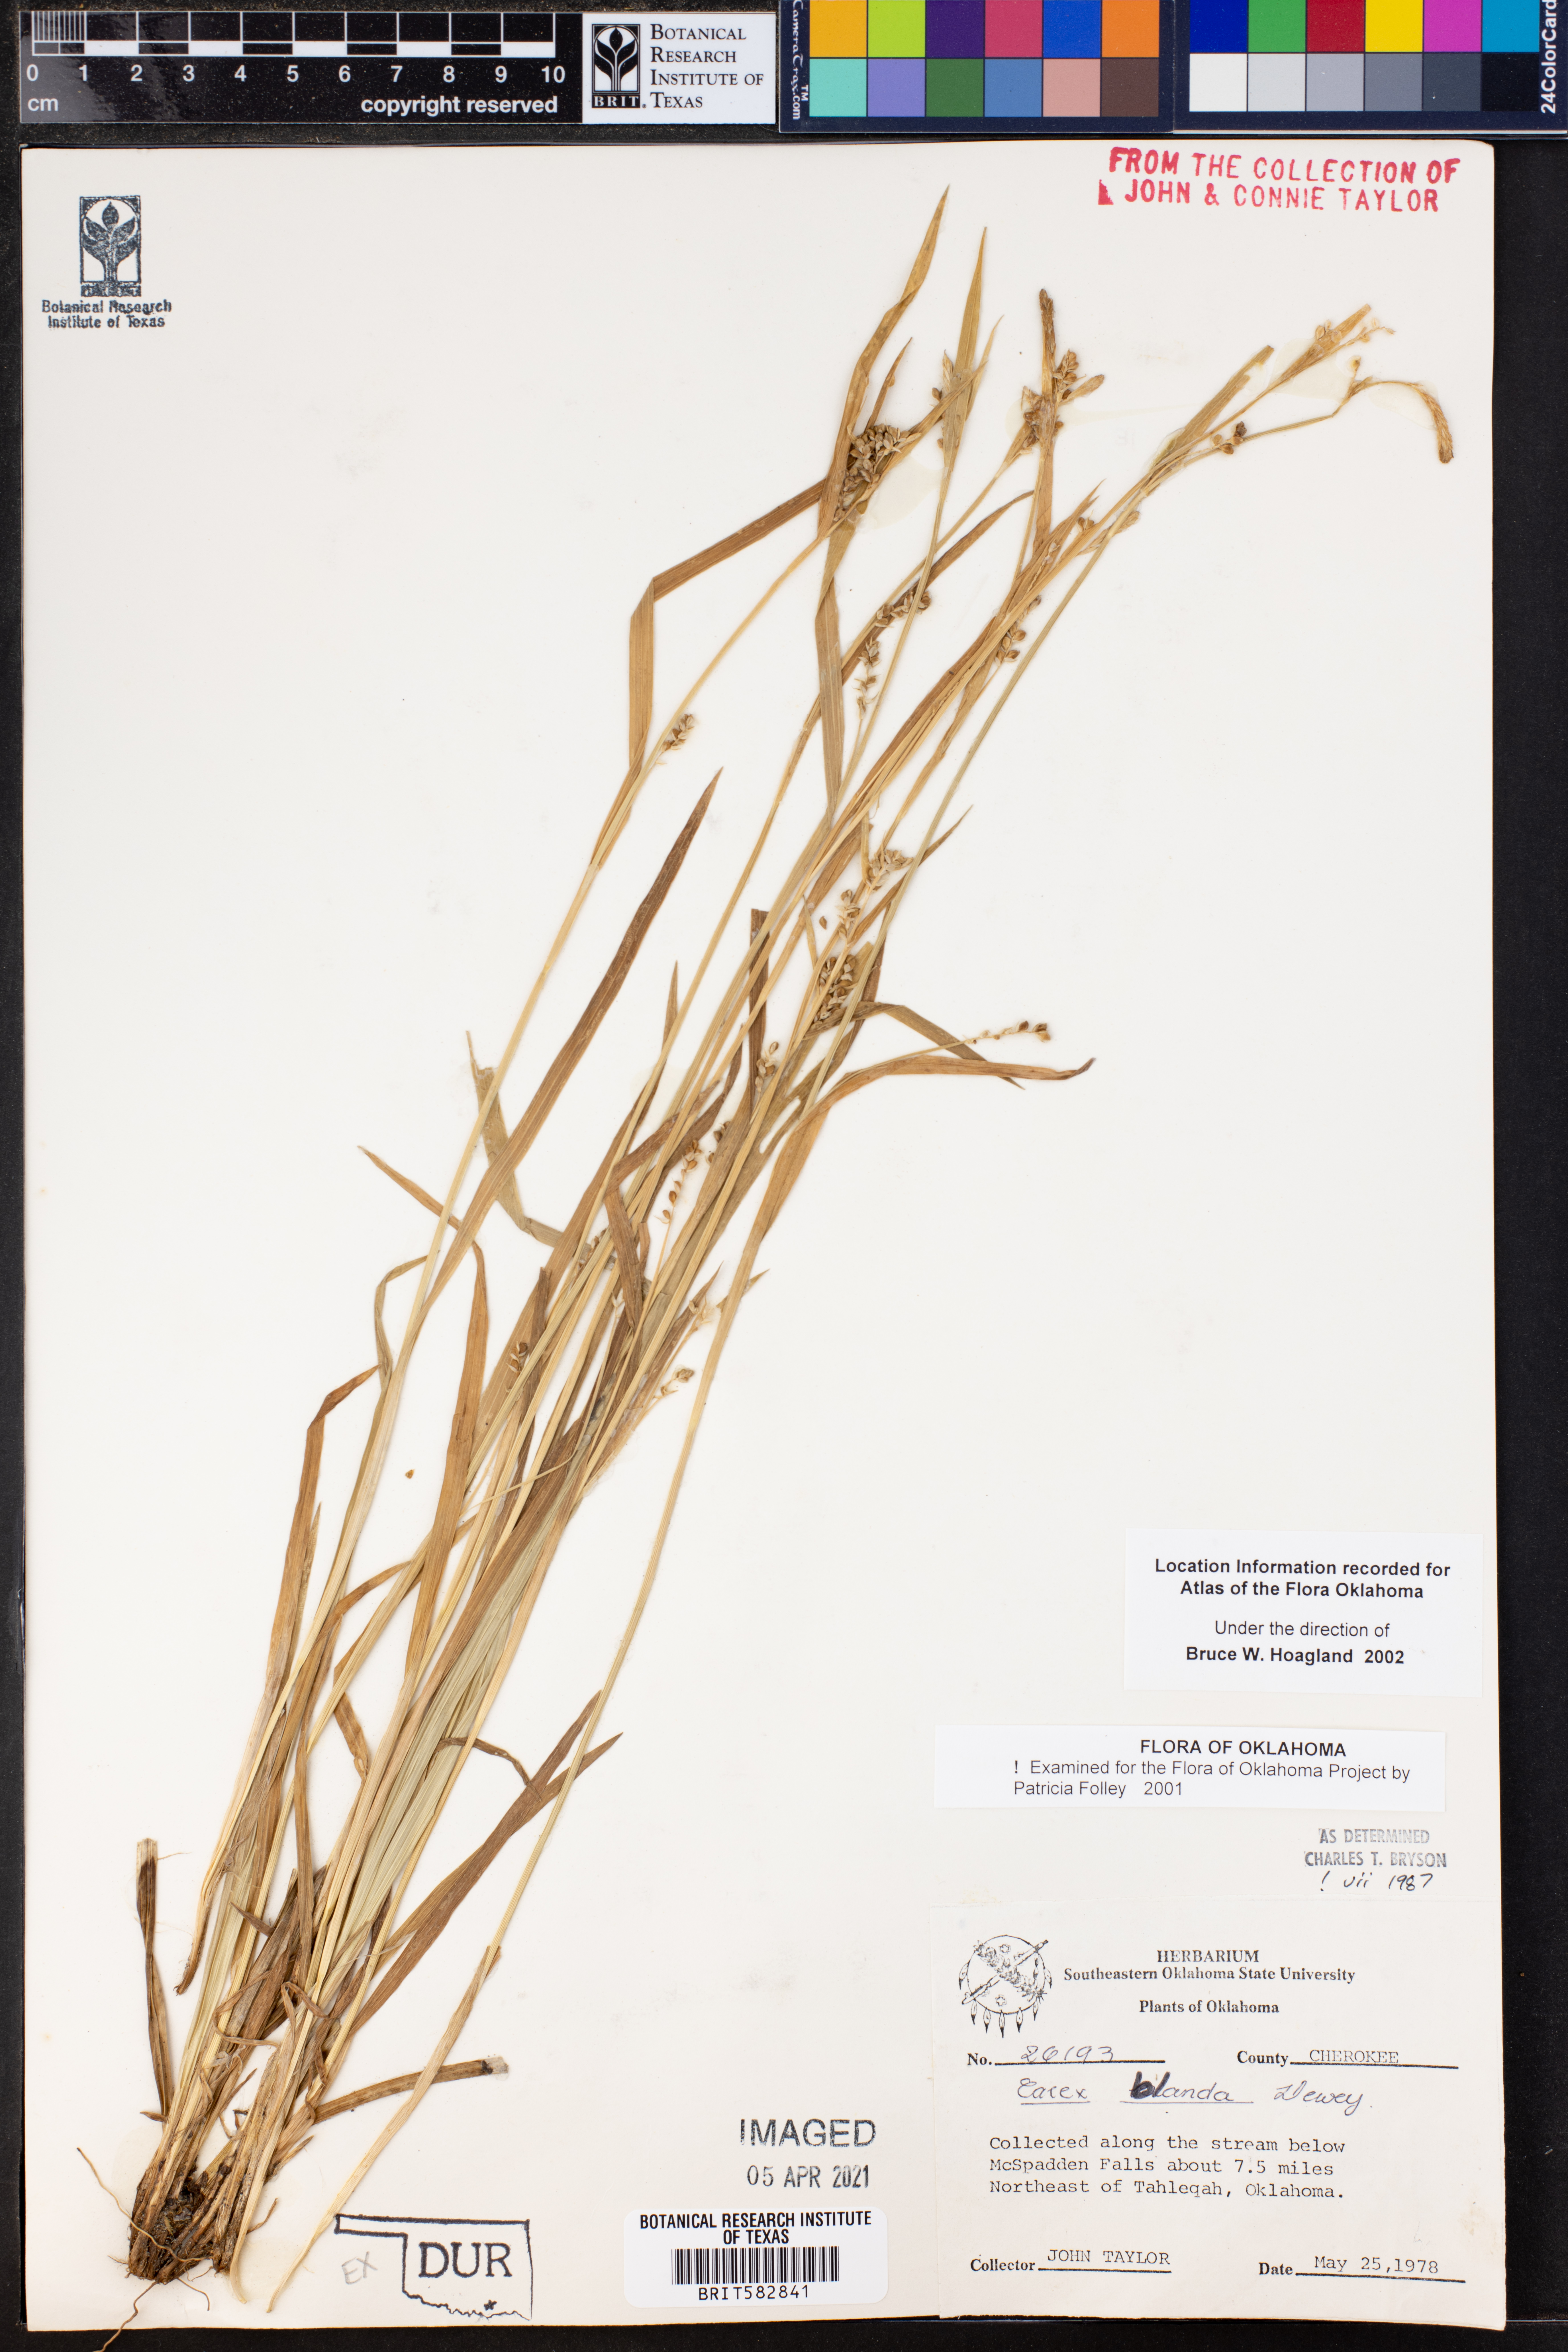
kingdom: Plantae
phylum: Tracheophyta
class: Liliopsida
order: Poales
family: Cyperaceae
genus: Carex
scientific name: Carex blanda
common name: Bland sedge
